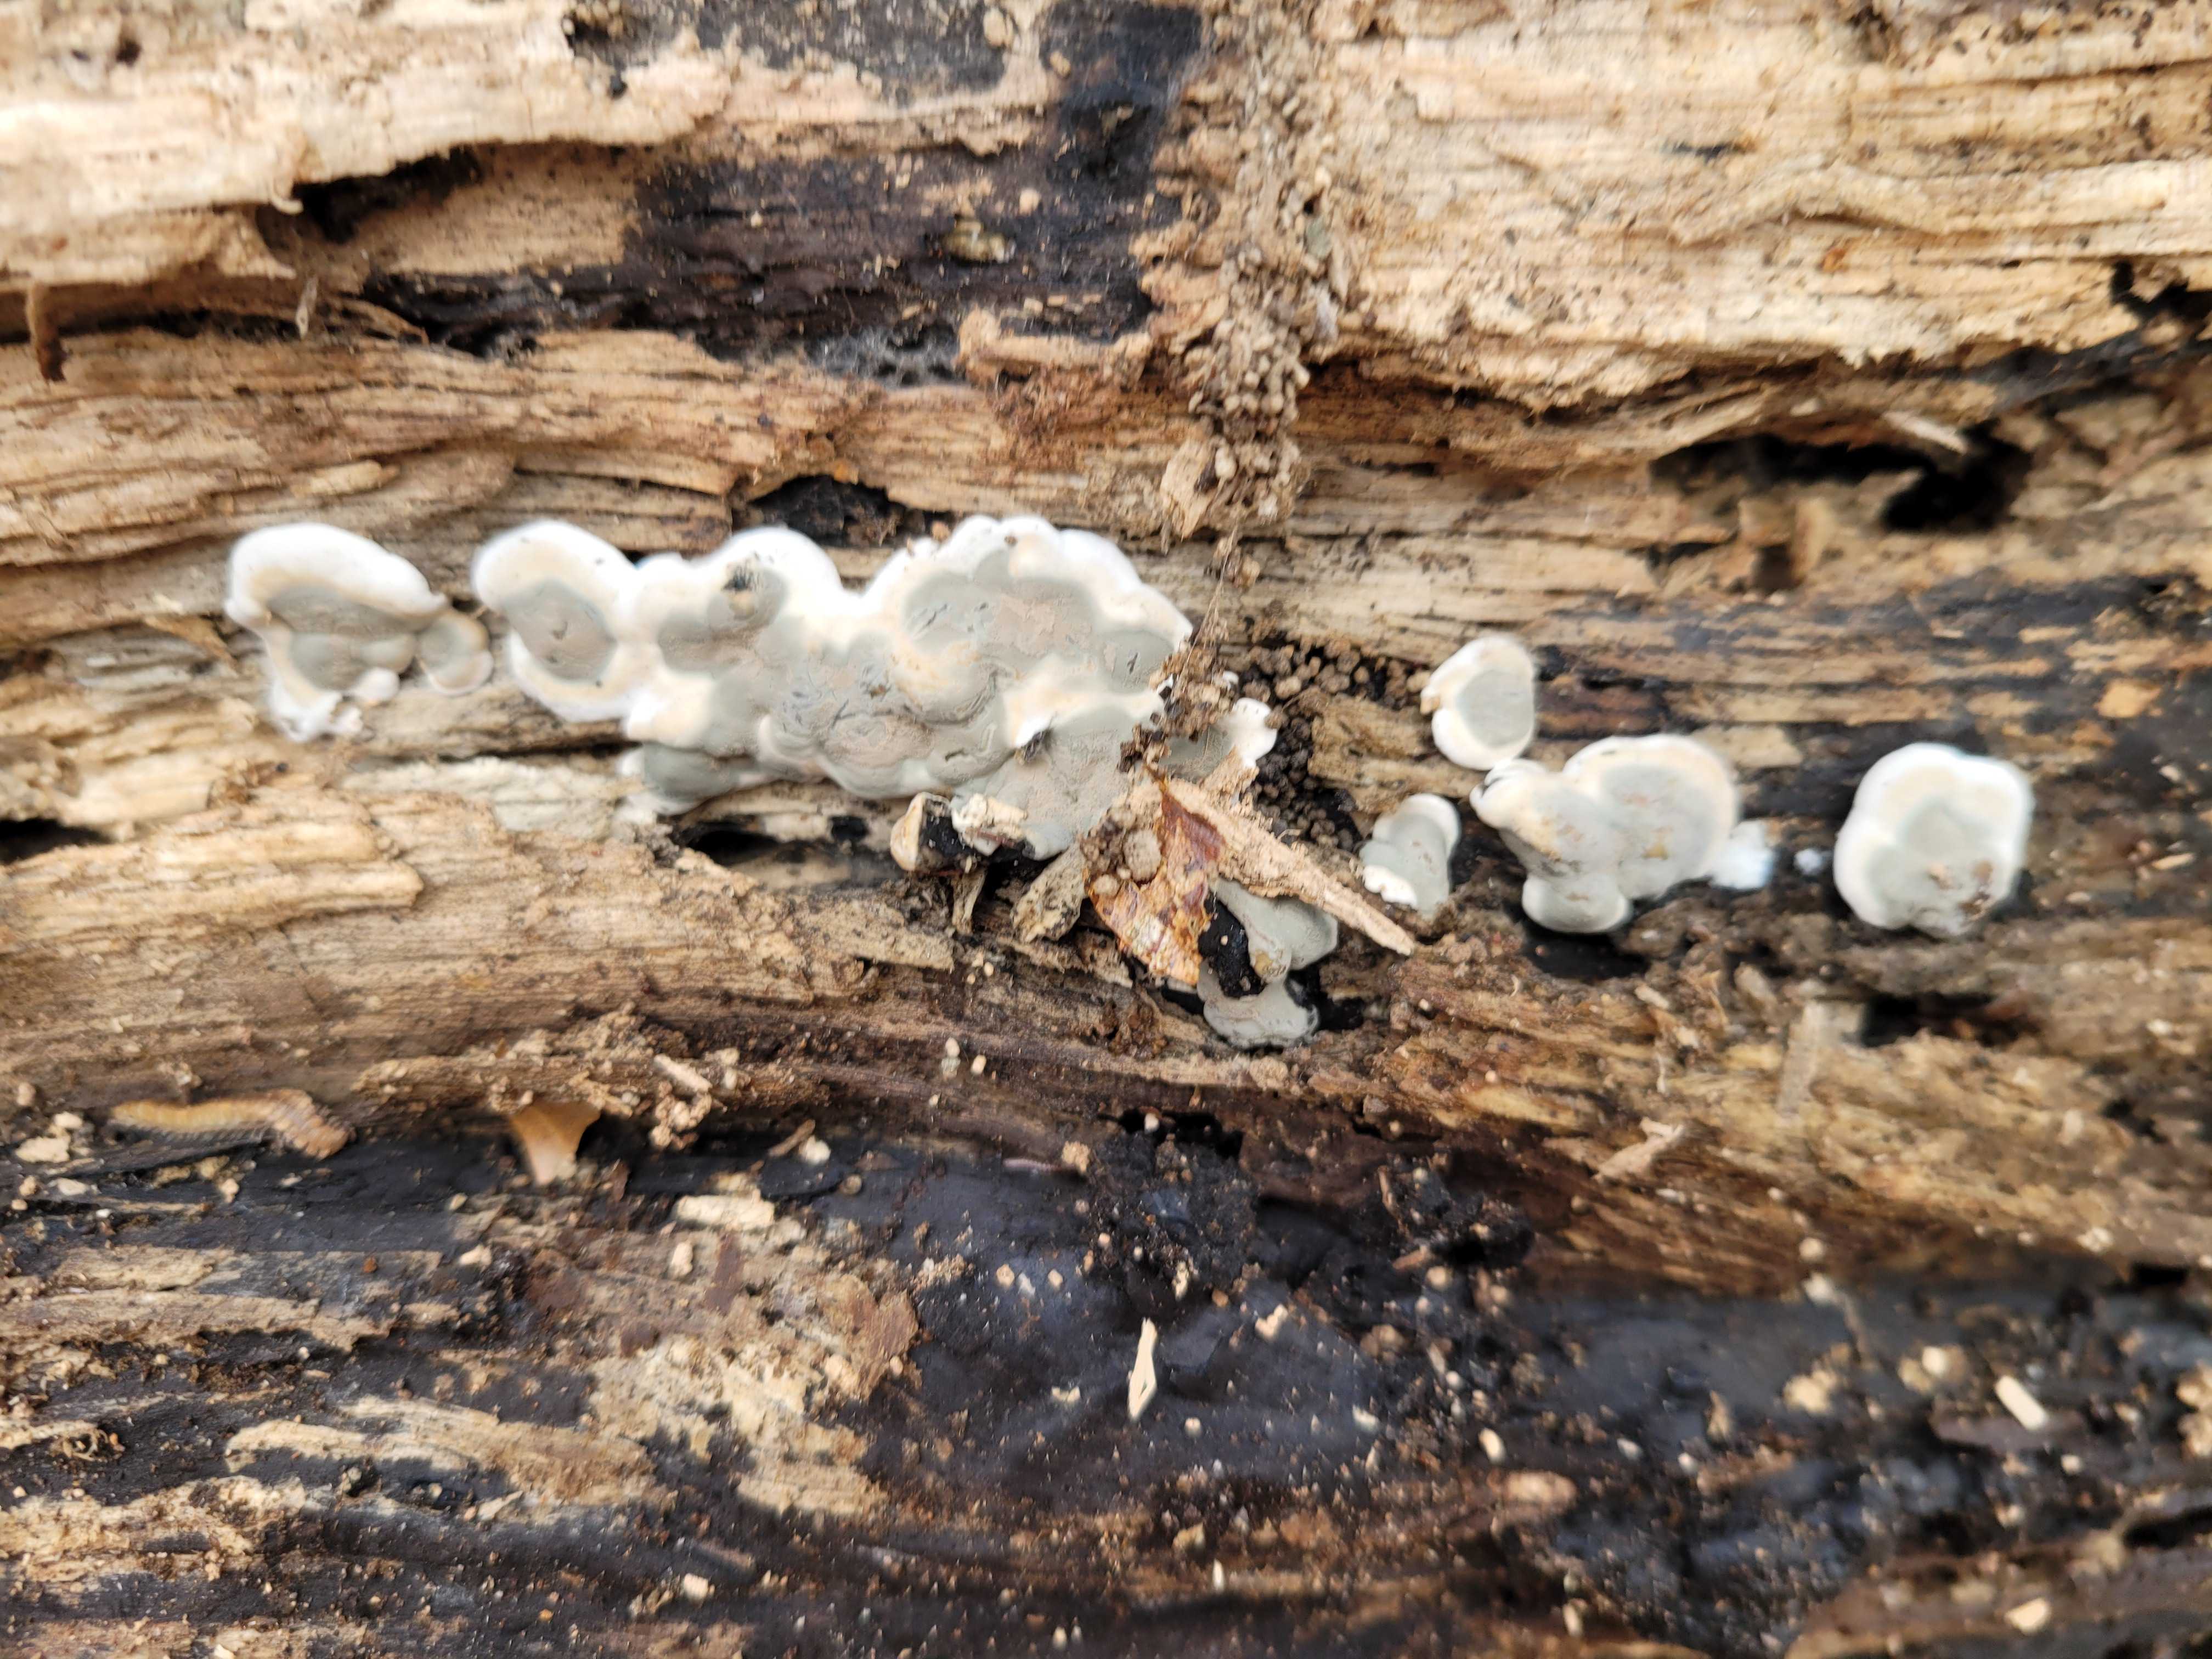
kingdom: Fungi
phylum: Ascomycota
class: Sordariomycetes
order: Xylariales
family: Xylariaceae
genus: Kretzschmaria
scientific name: Kretzschmaria deusta
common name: stor kulsvamp
